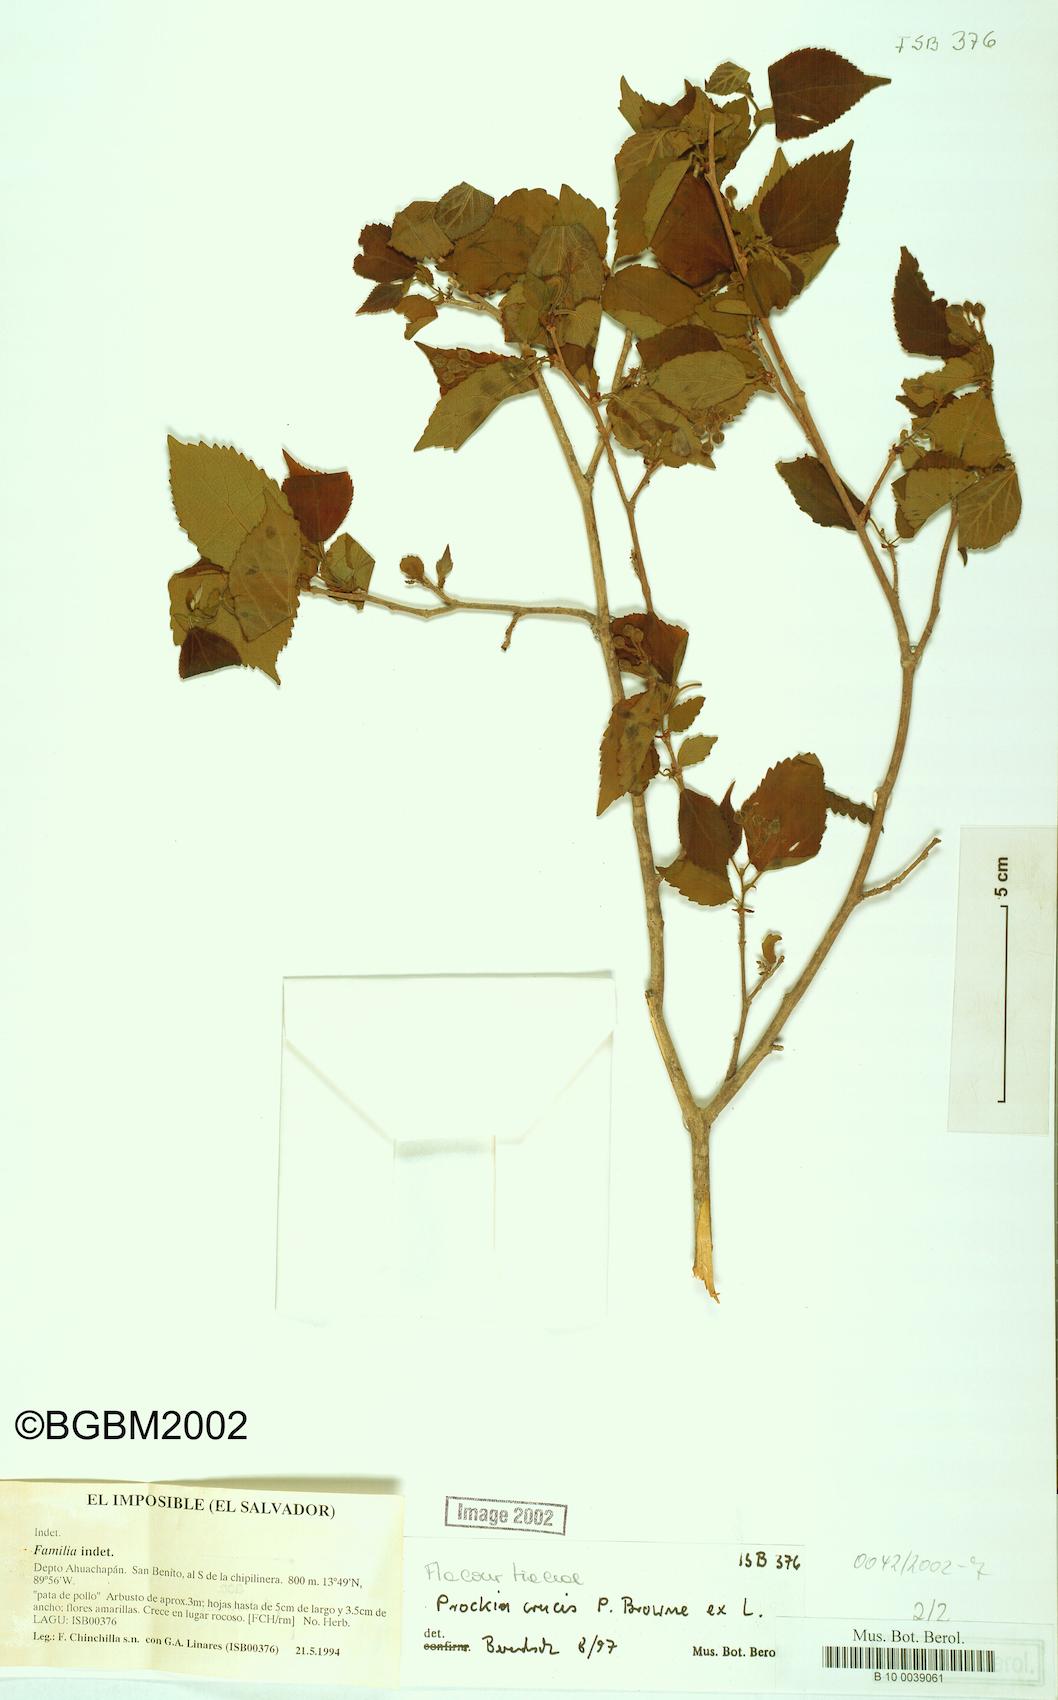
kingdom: Plantae
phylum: Tracheophyta
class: Magnoliopsida
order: Malpighiales
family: Salicaceae
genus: Prockia
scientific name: Prockia crucis
